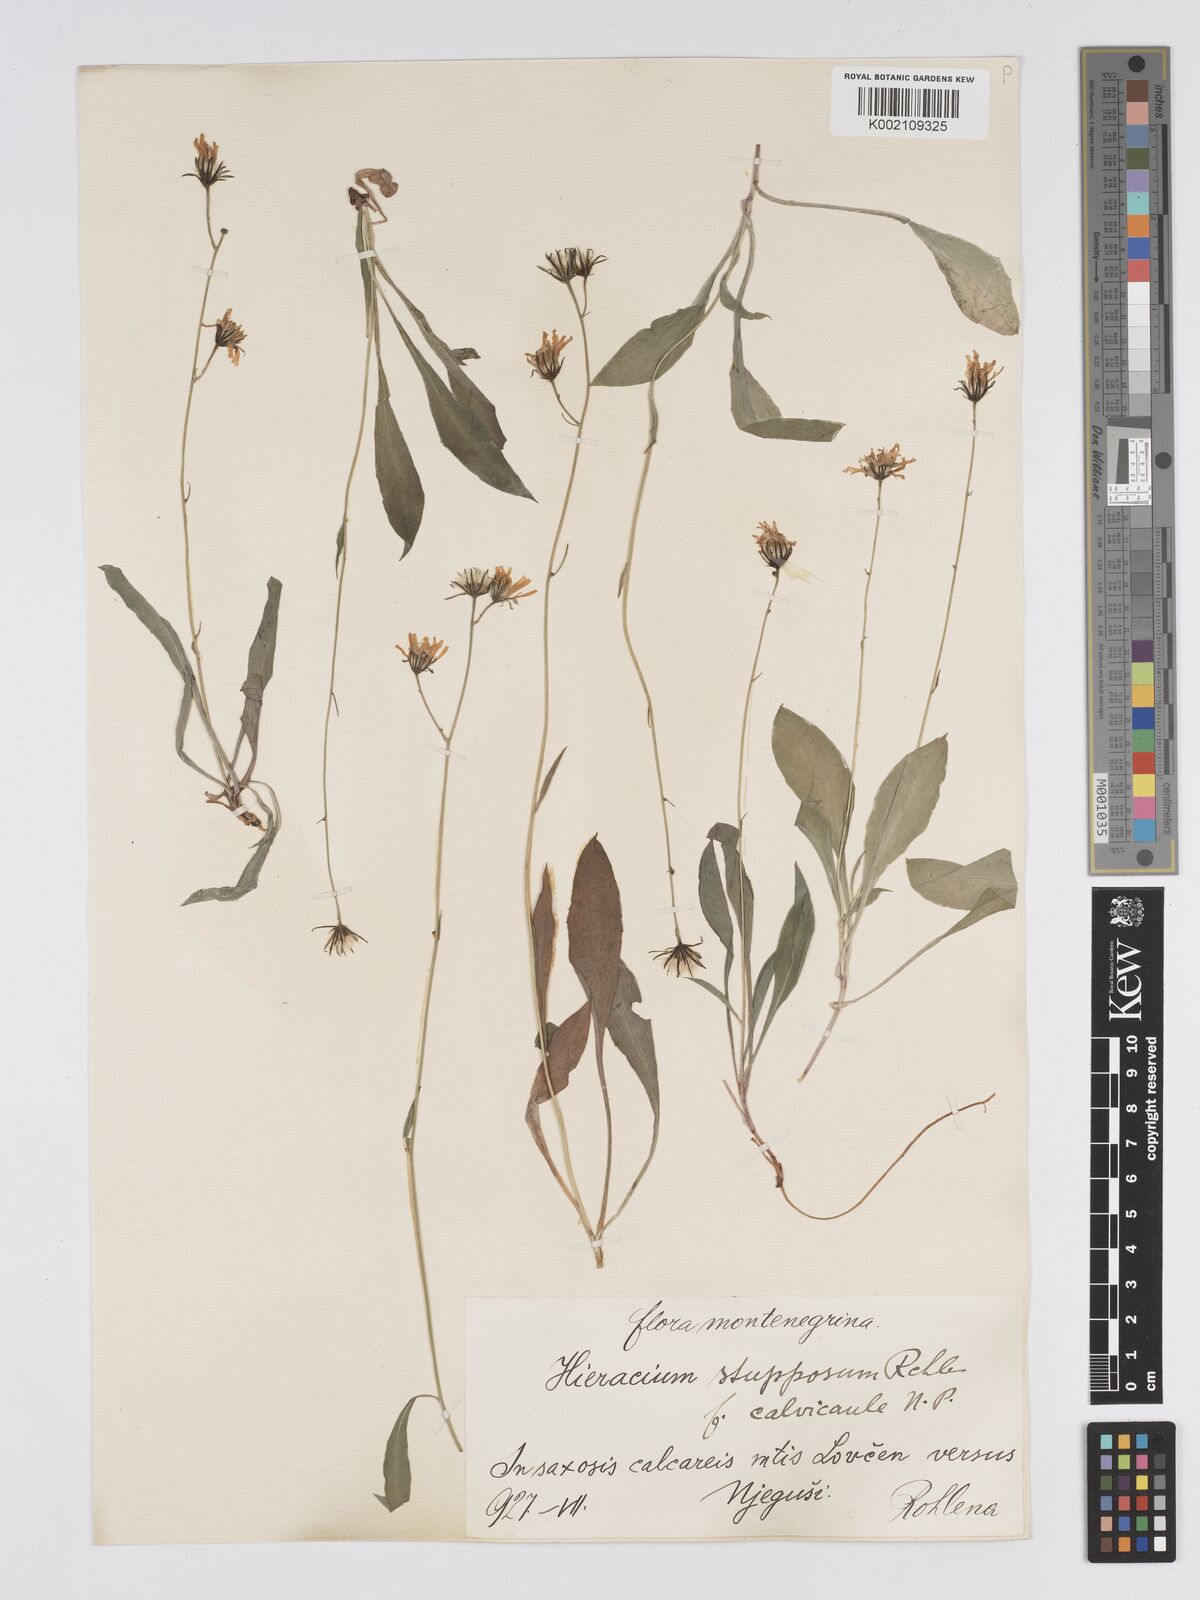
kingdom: Plantae
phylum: Tracheophyta
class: Magnoliopsida
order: Asterales
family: Asteraceae
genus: Hieracium
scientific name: Hieracium heterogynum
